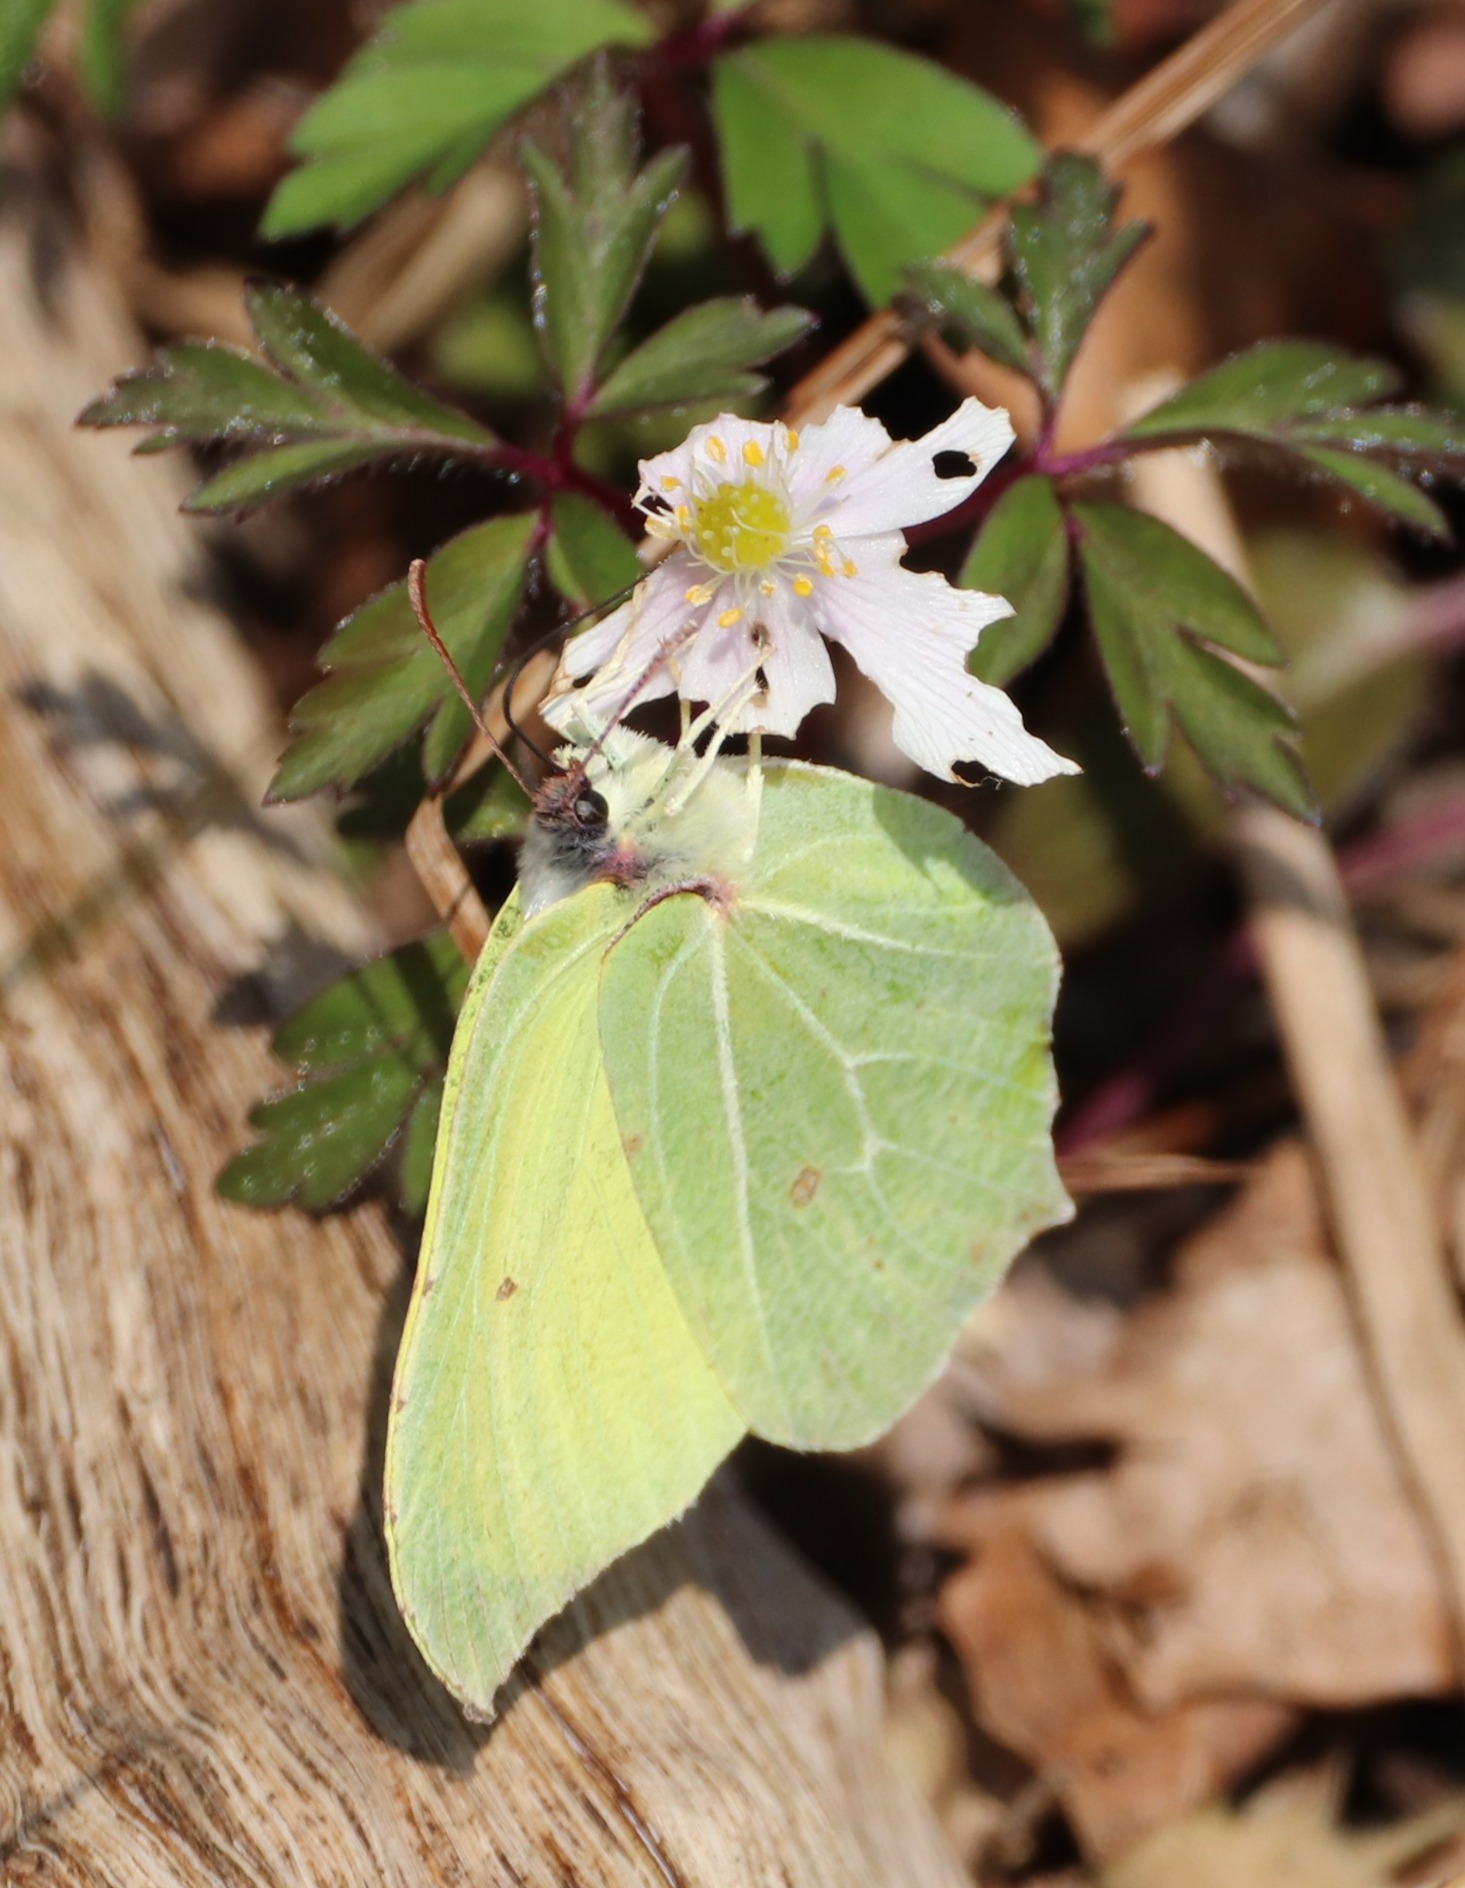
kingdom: Animalia
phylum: Arthropoda
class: Insecta
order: Lepidoptera
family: Pieridae
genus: Gonepteryx
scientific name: Gonepteryx rhamni
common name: Citronsommerfugl
